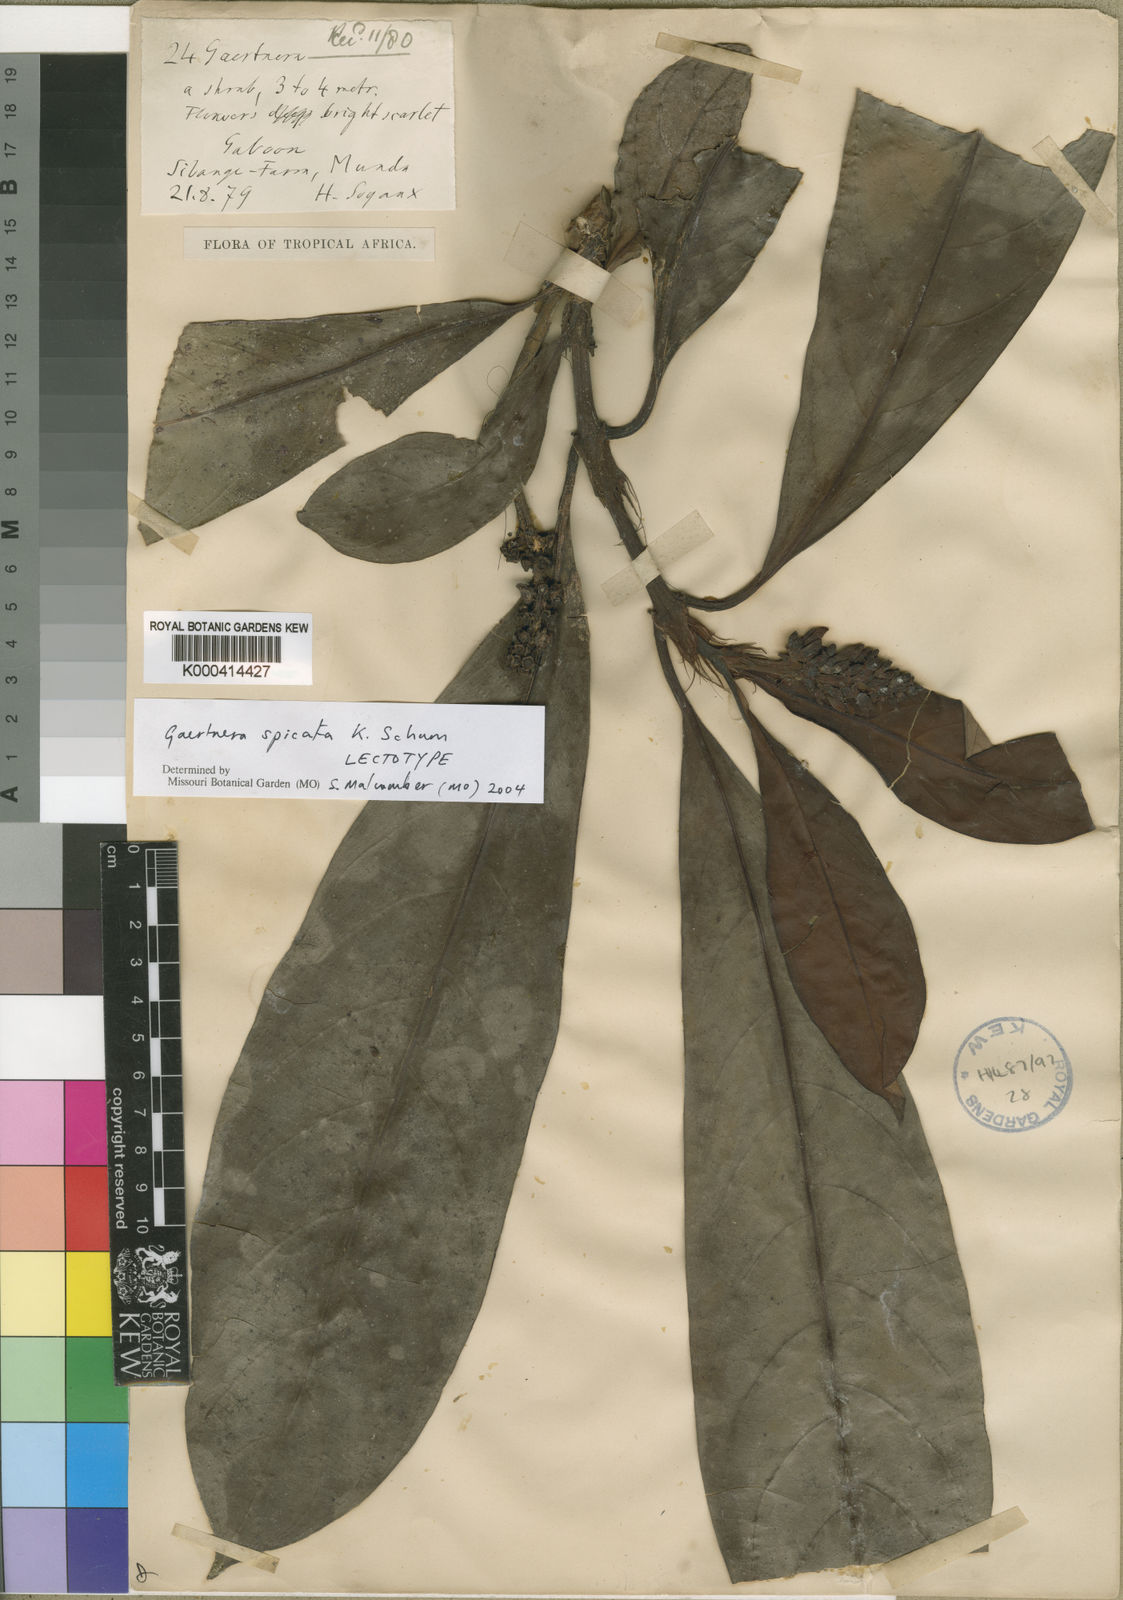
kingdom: Plantae
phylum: Tracheophyta
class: Magnoliopsida
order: Gentianales
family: Rubiaceae
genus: Gaertnera
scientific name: Gaertnera spicata
